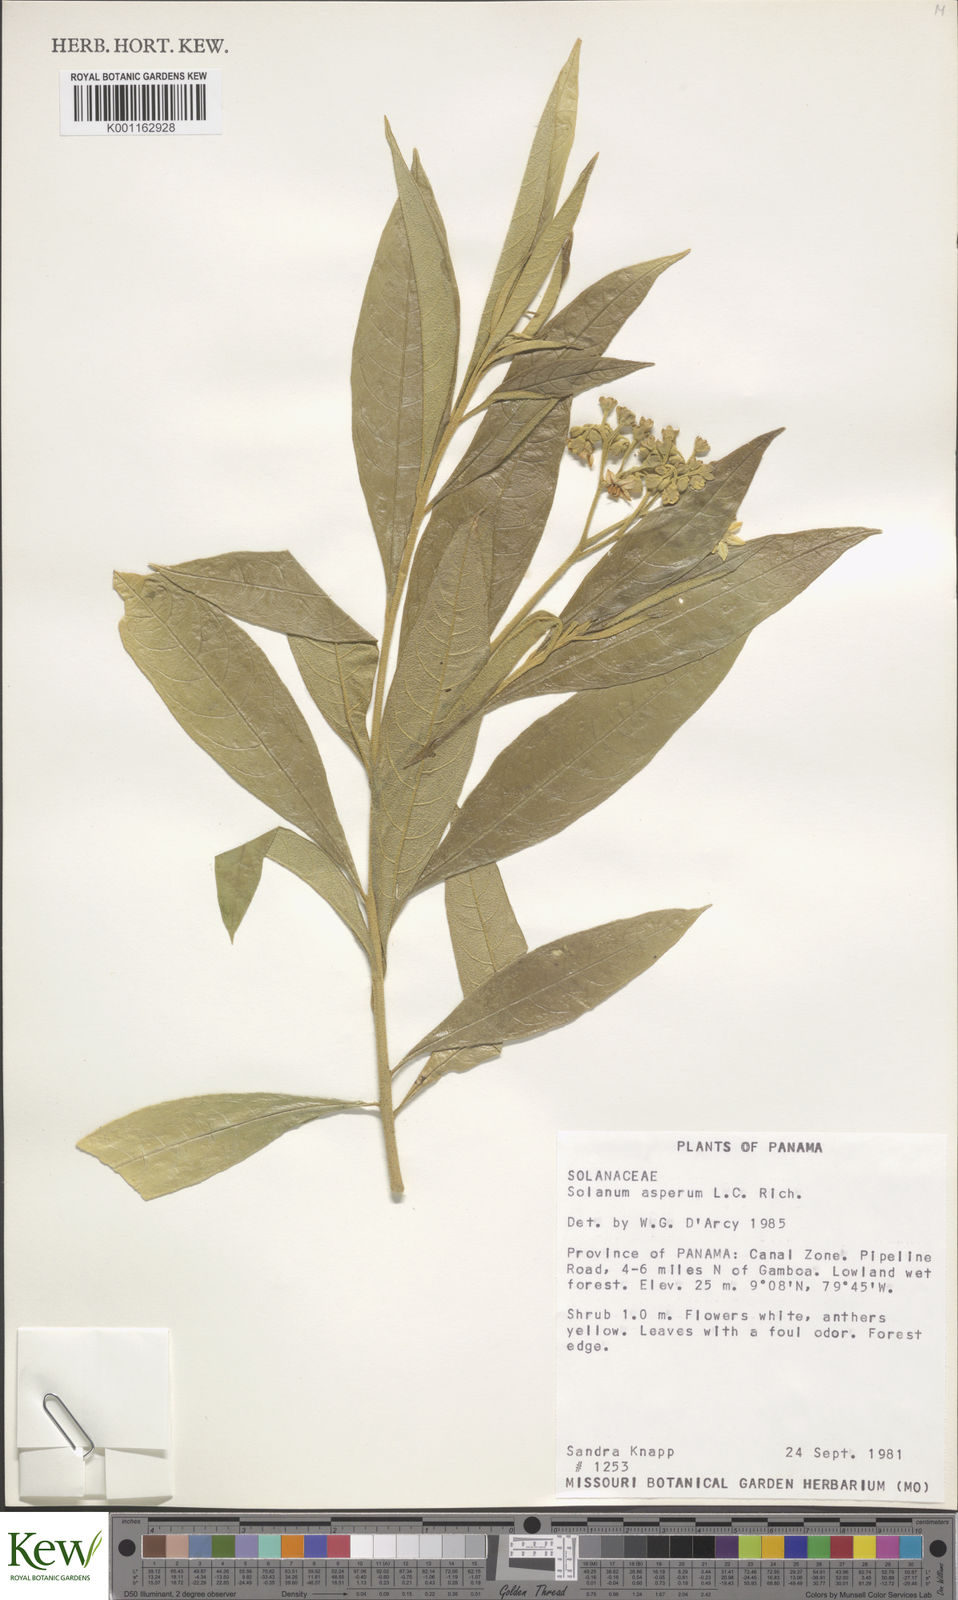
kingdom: Plantae
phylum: Tracheophyta
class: Magnoliopsida
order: Solanales
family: Solanaceae
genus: Solanum
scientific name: Solanum asperum
